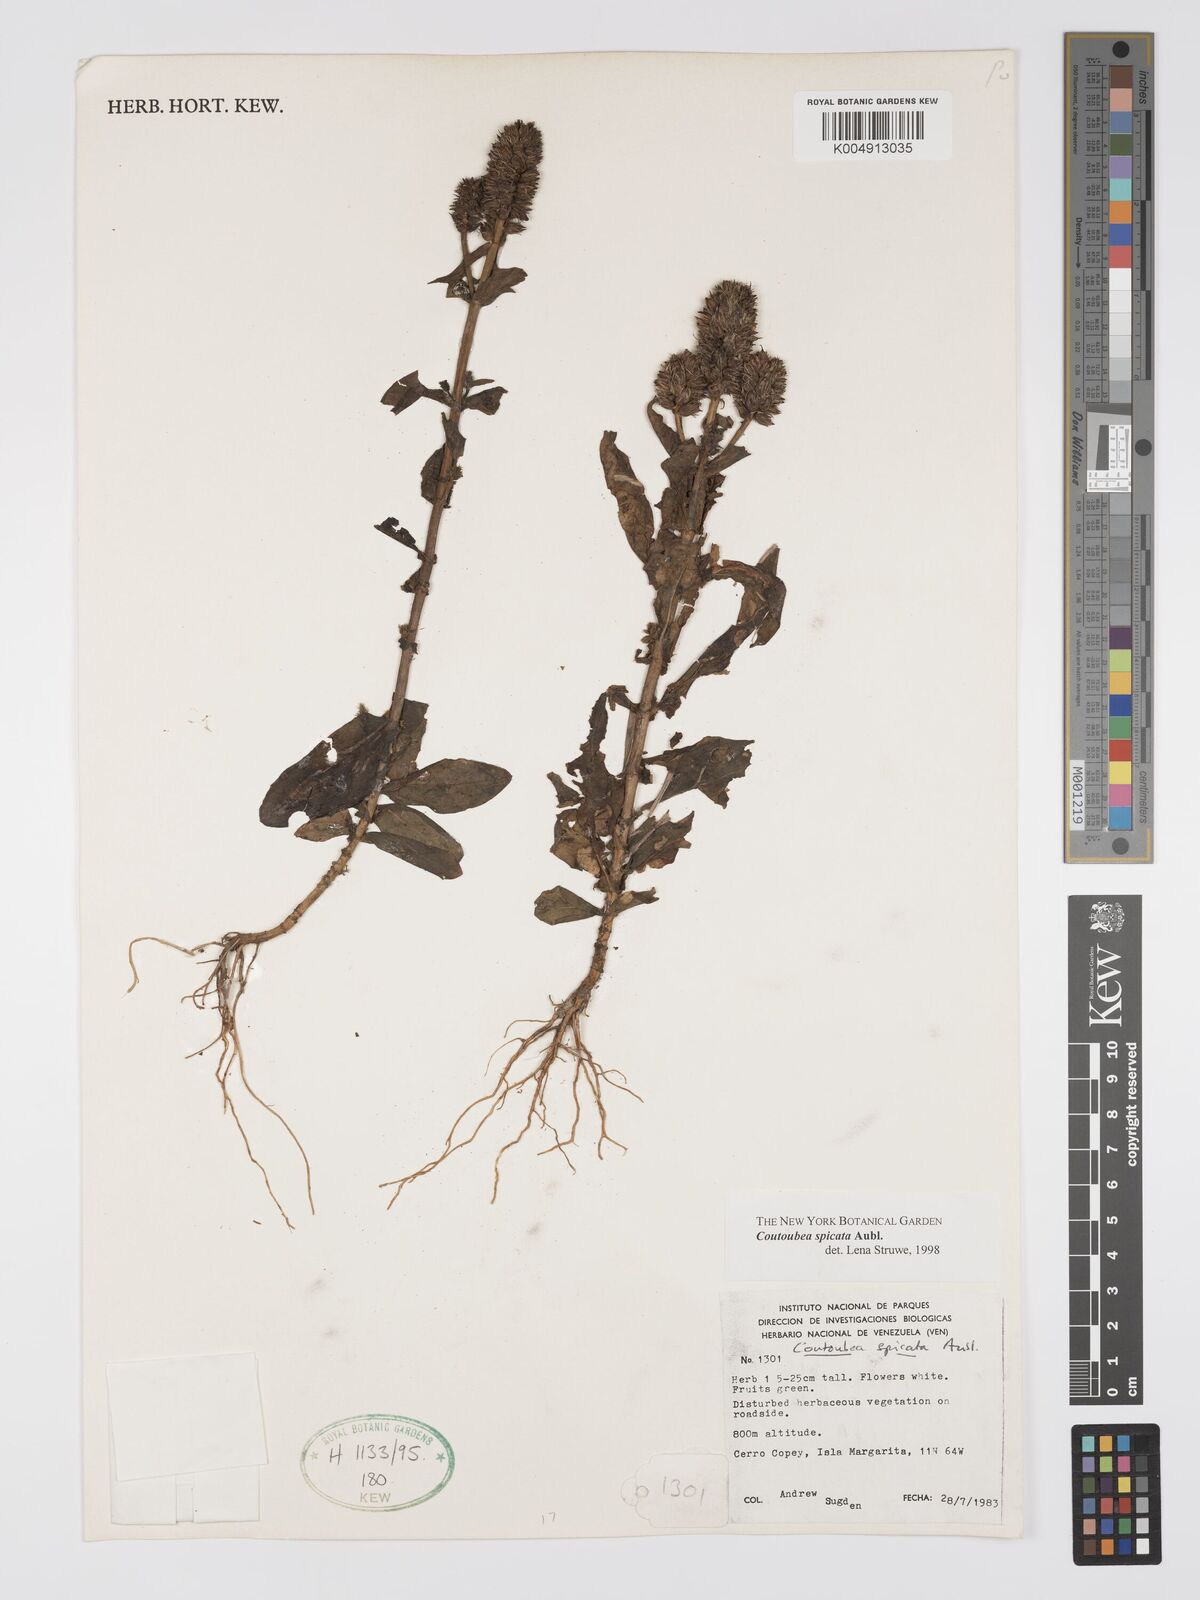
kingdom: Plantae
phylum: Tracheophyta
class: Magnoliopsida
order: Gentianales
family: Gentianaceae
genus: Coutoubea
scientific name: Coutoubea spicata
